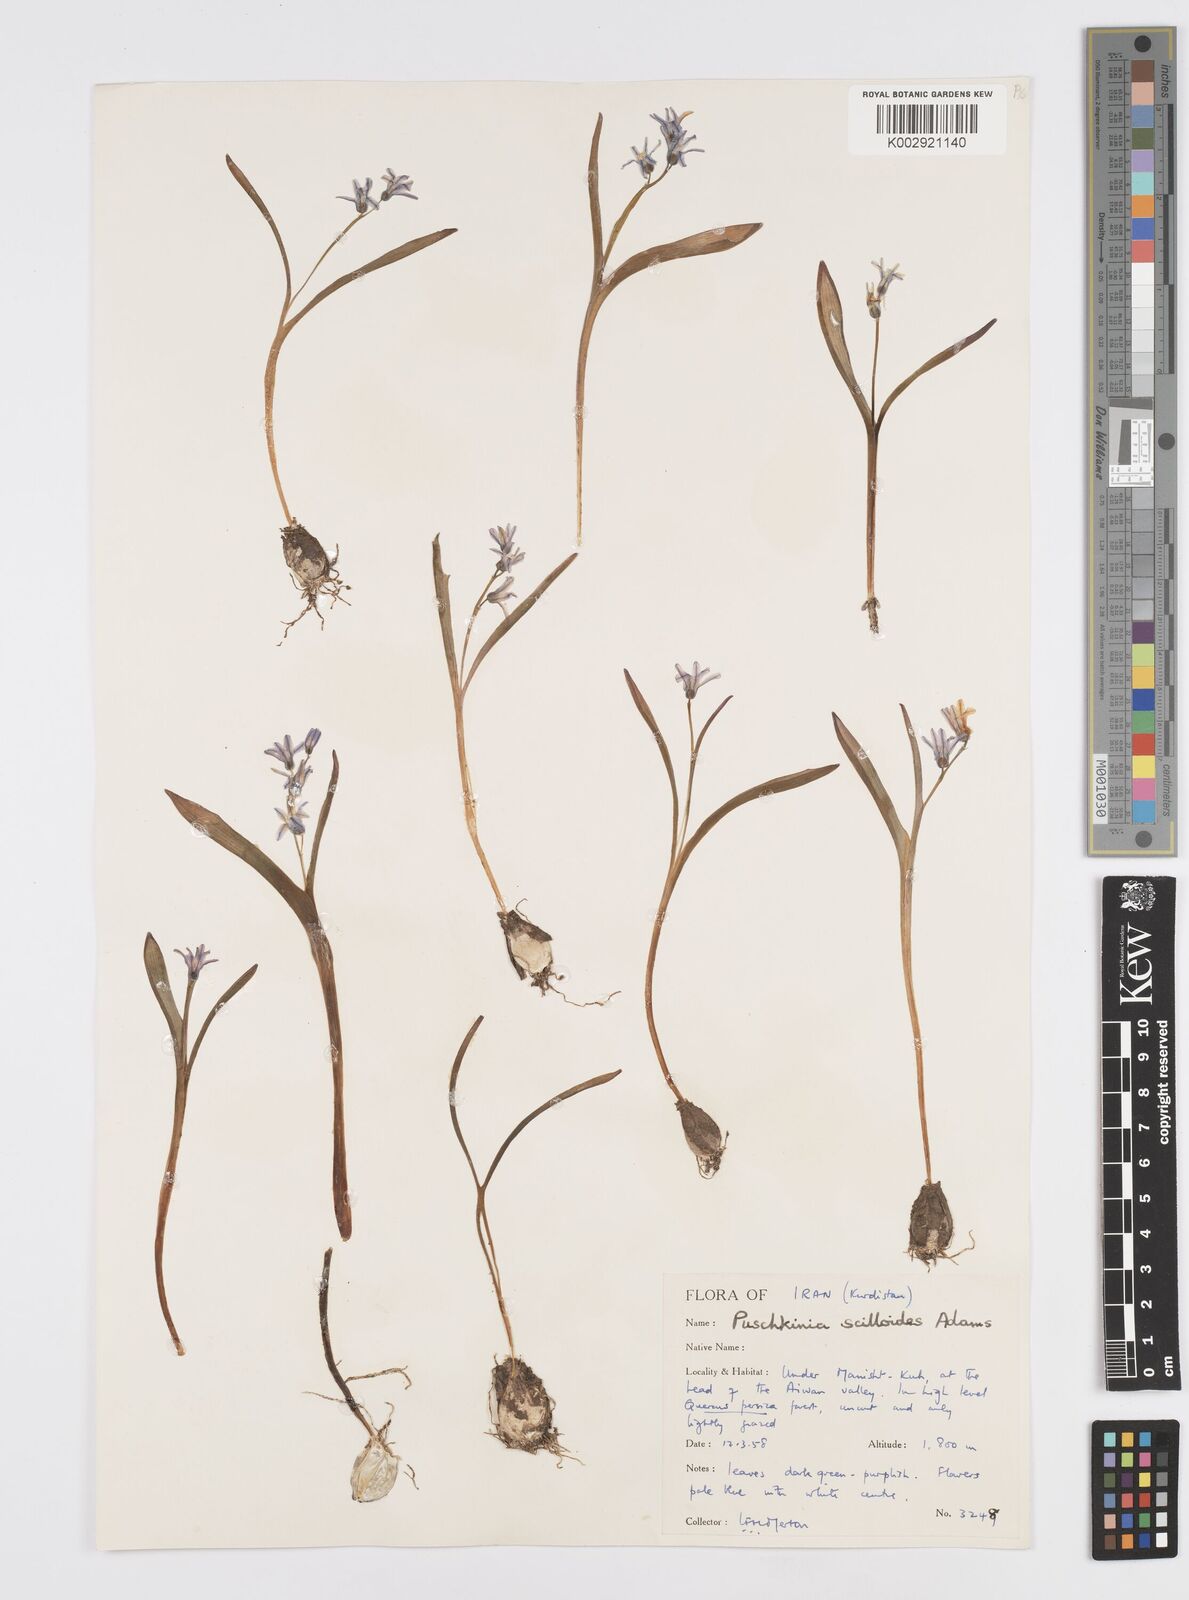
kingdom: Plantae
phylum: Tracheophyta
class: Liliopsida
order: Asparagales
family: Asparagaceae
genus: Puschkinia
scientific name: Puschkinia scilloides
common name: Striped squill
